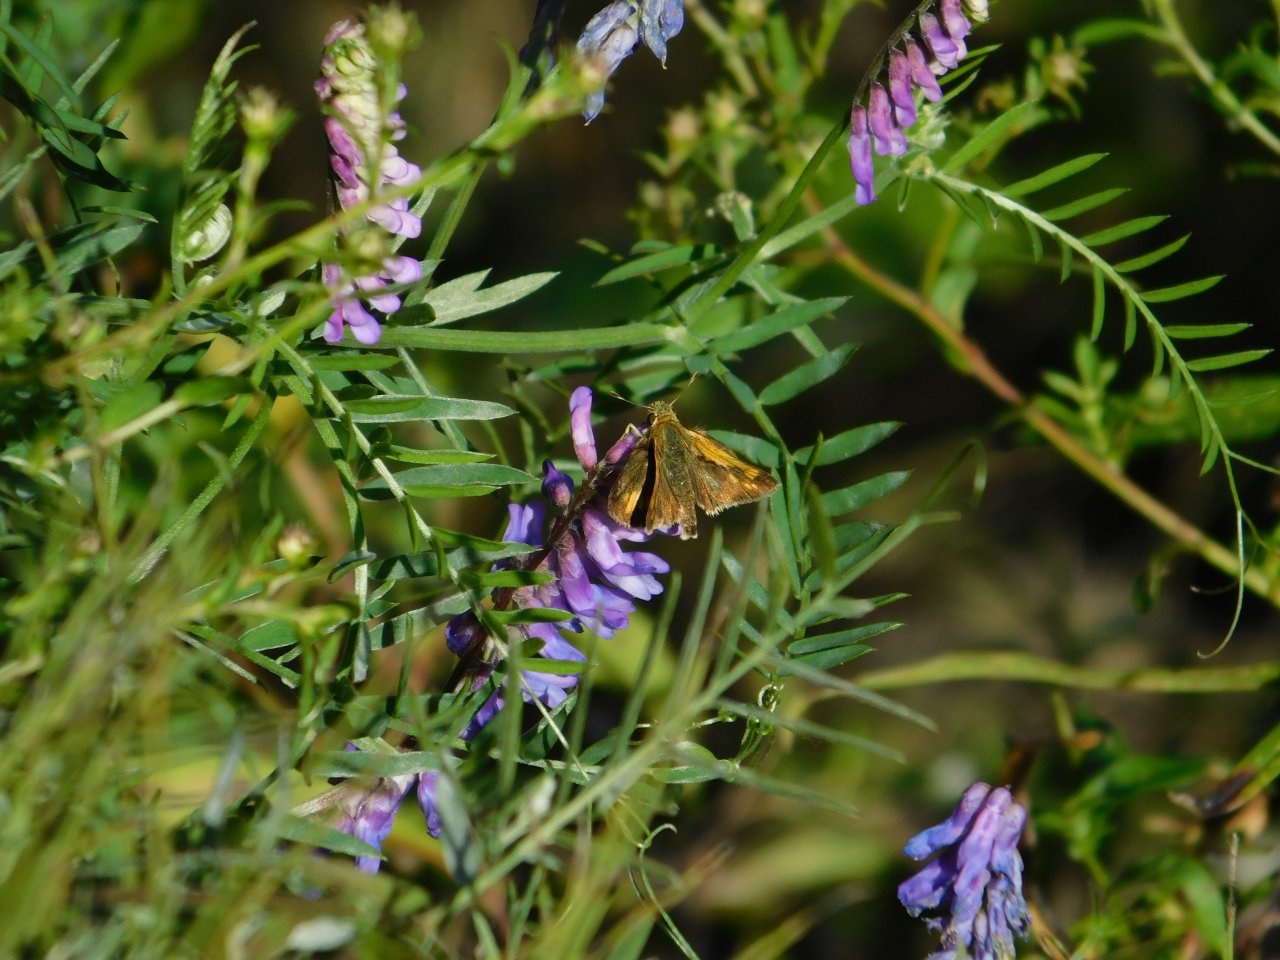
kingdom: Animalia
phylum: Arthropoda
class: Insecta
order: Lepidoptera
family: Hesperiidae
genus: Polites
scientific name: Polites coras
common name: Peck's Skipper
